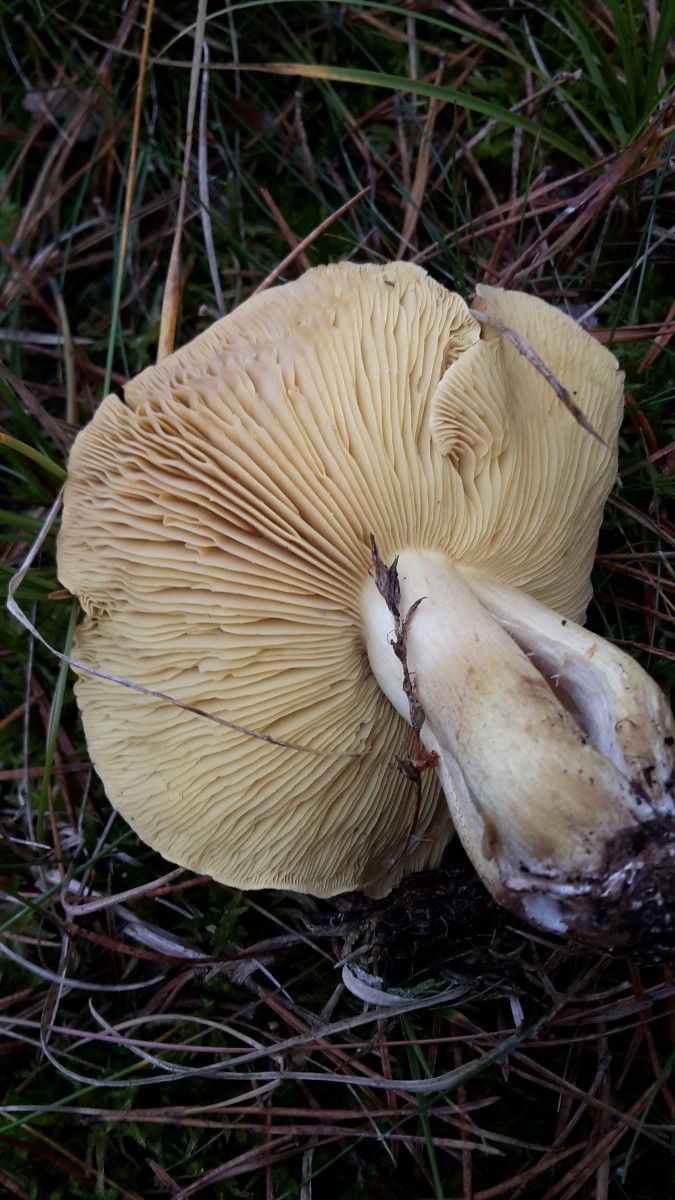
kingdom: Fungi
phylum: Basidiomycota
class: Agaricomycetes
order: Agaricales
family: Tricholomataceae
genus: Tricholoma
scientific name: Tricholoma equestre
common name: ægte ridderhat
